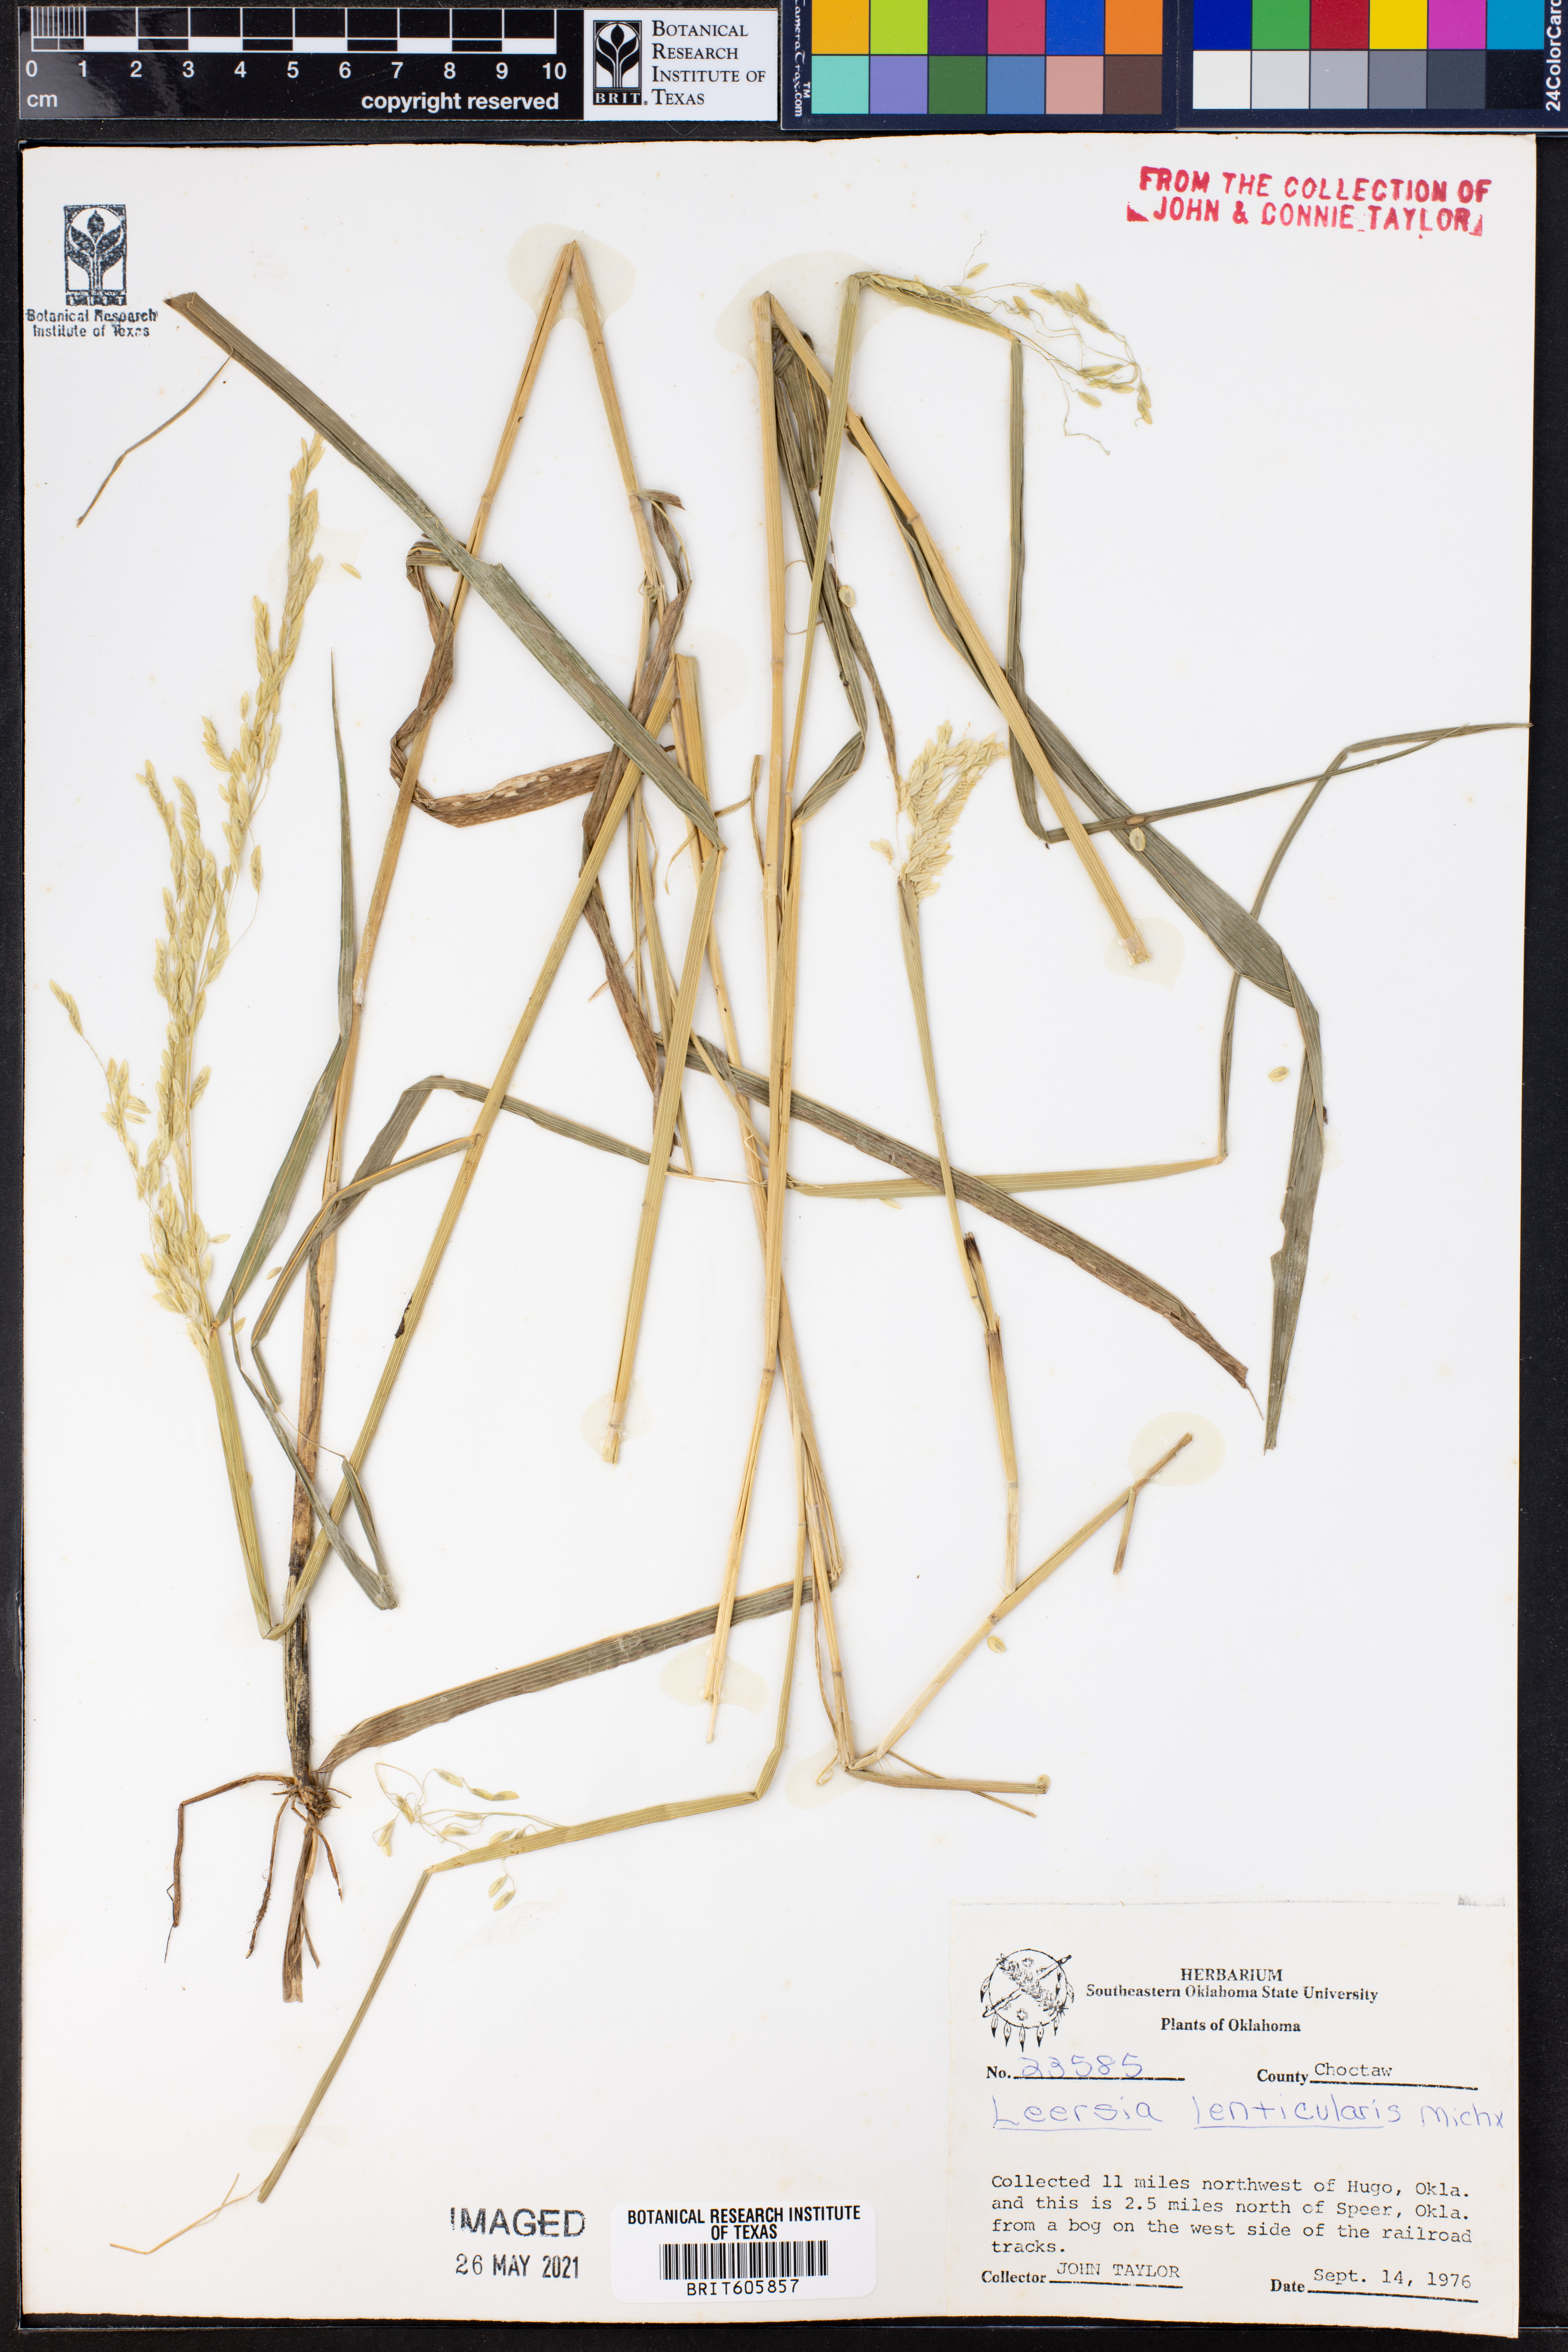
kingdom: Plantae
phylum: Tracheophyta
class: Liliopsida
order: Poales
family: Poaceae
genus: Leersia
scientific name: Leersia lenticularis
